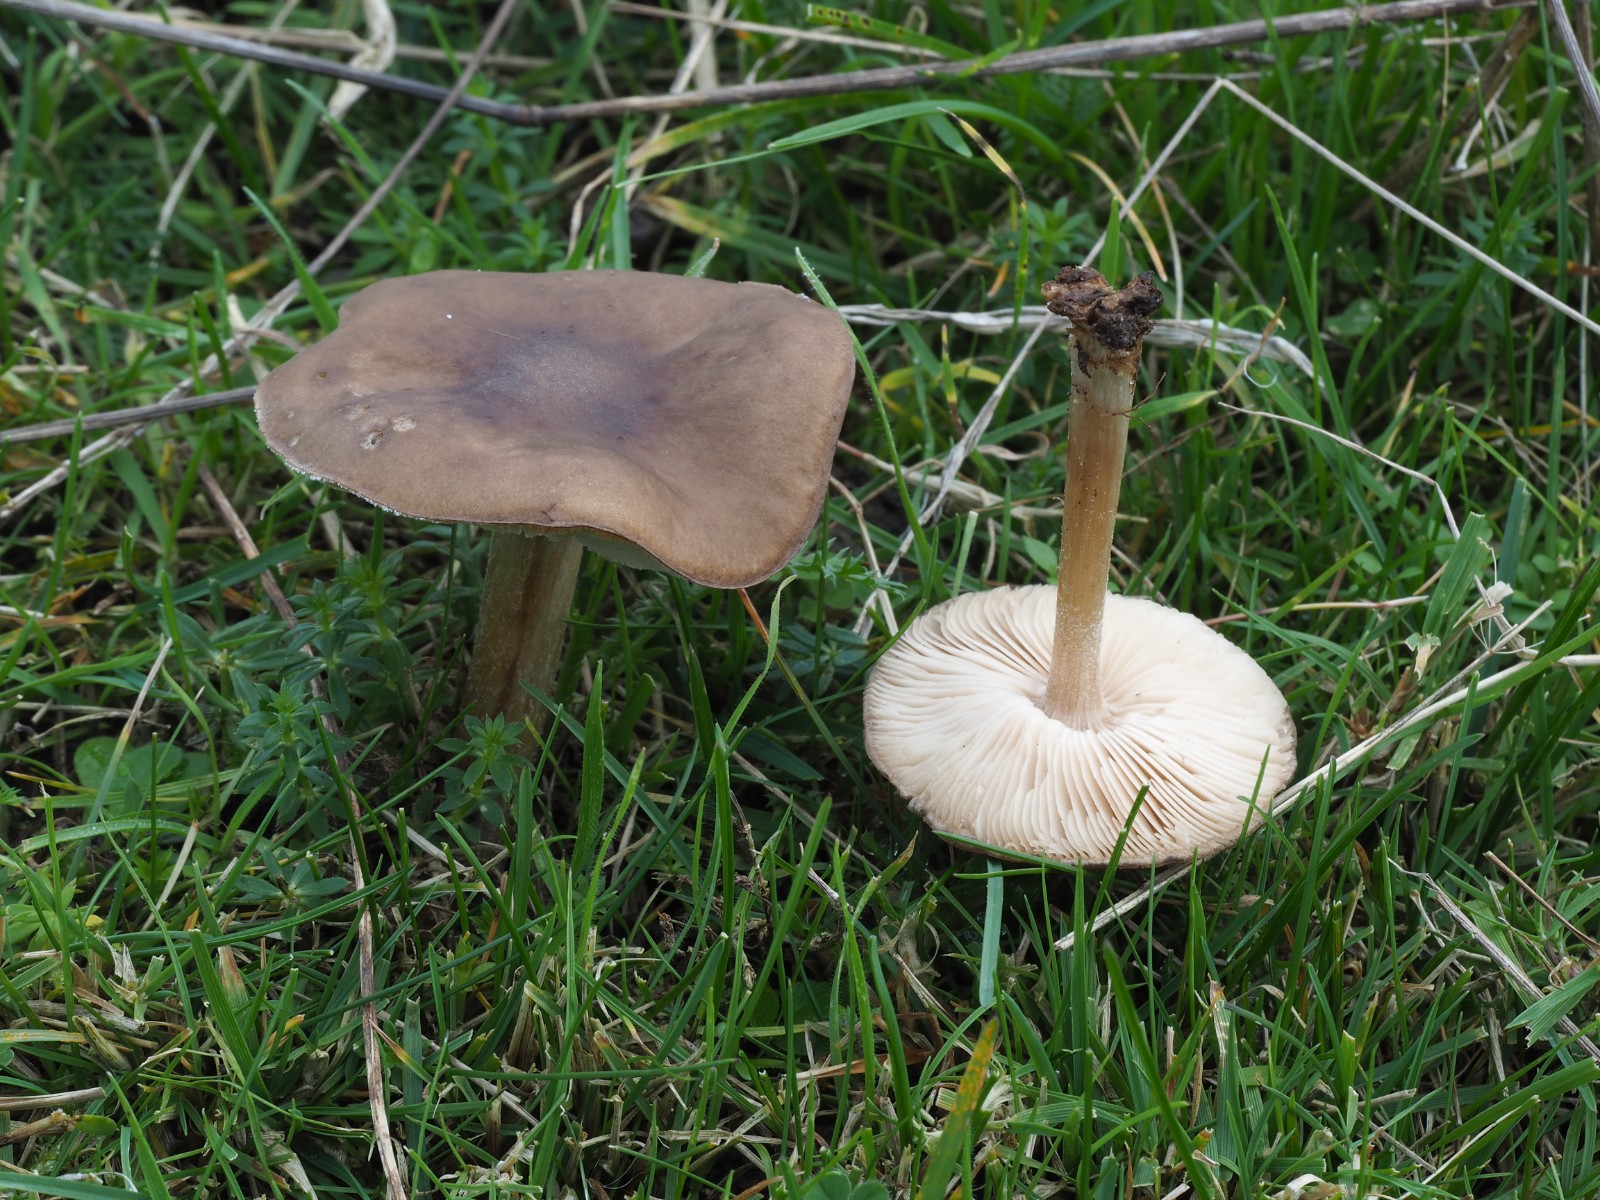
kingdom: Fungi
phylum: Basidiomycota
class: Agaricomycetes
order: Agaricales
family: Tricholomataceae
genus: Melanoleuca
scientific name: Melanoleuca polioleuca
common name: almindelig munkehat
